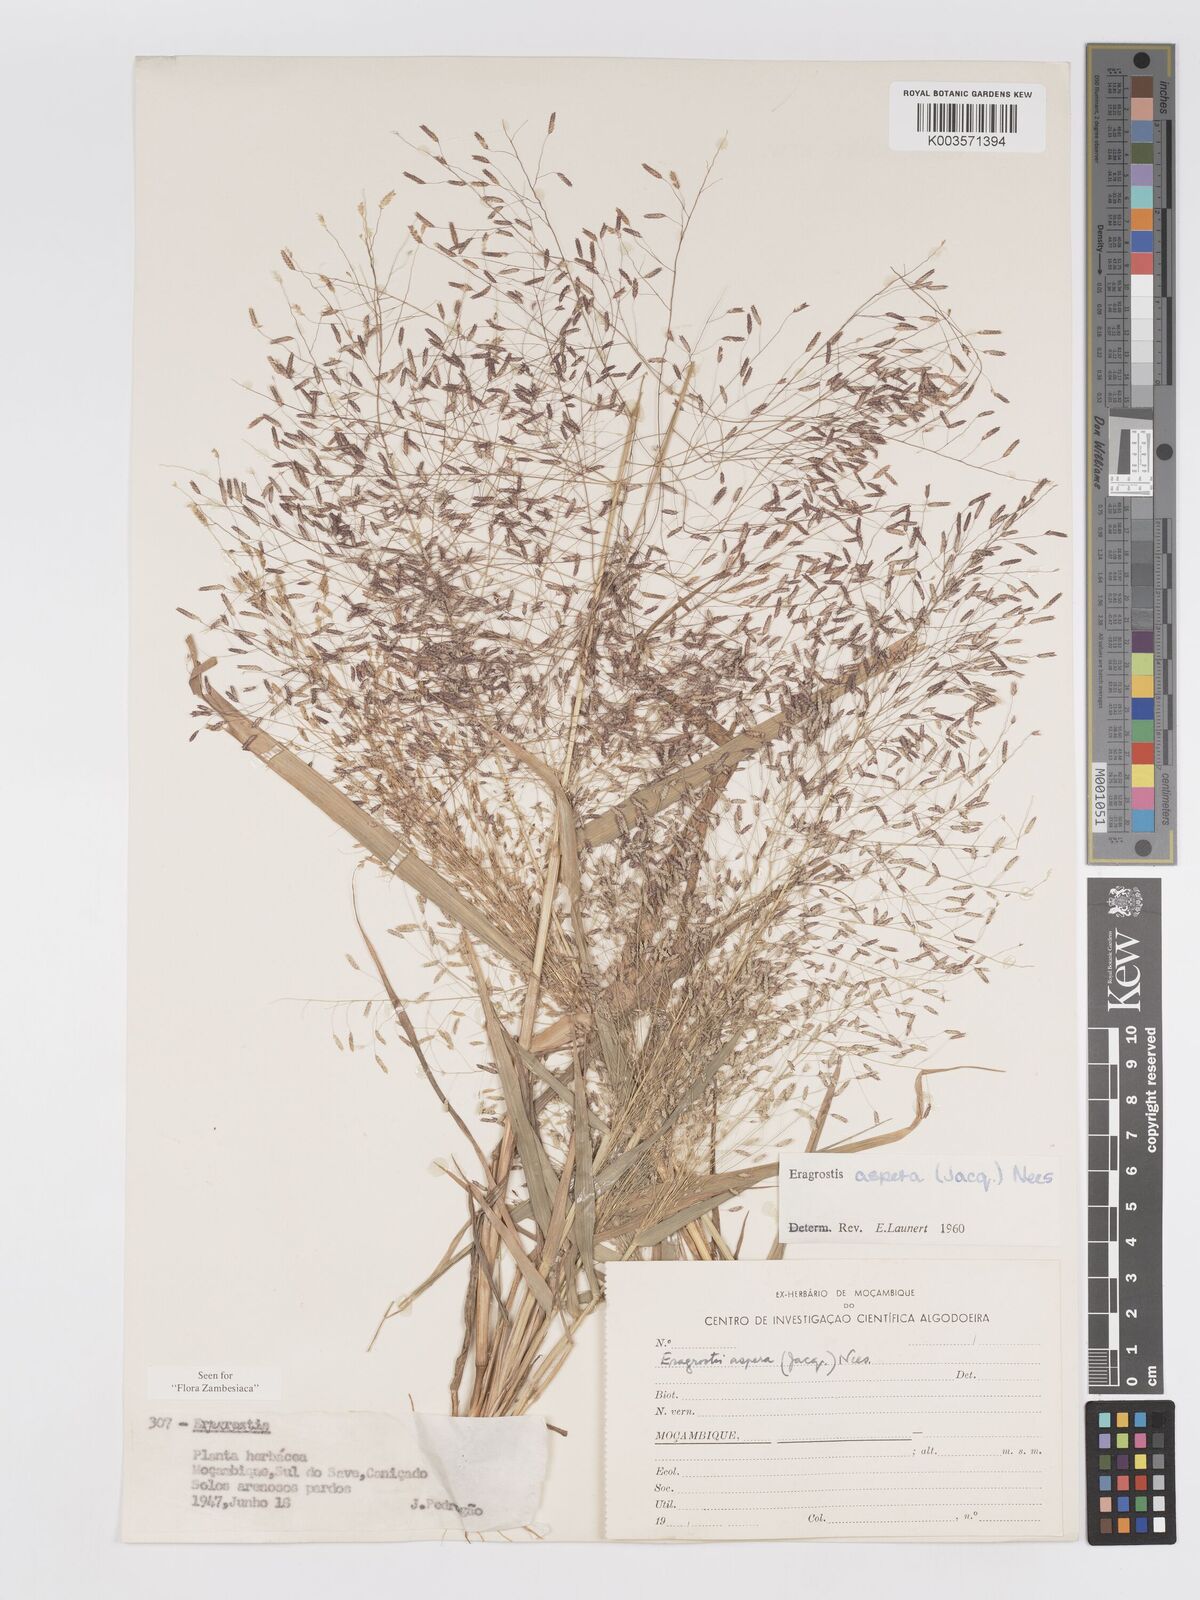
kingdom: Plantae
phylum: Tracheophyta
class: Liliopsida
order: Poales
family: Poaceae
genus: Eragrostis
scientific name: Eragrostis aspera
